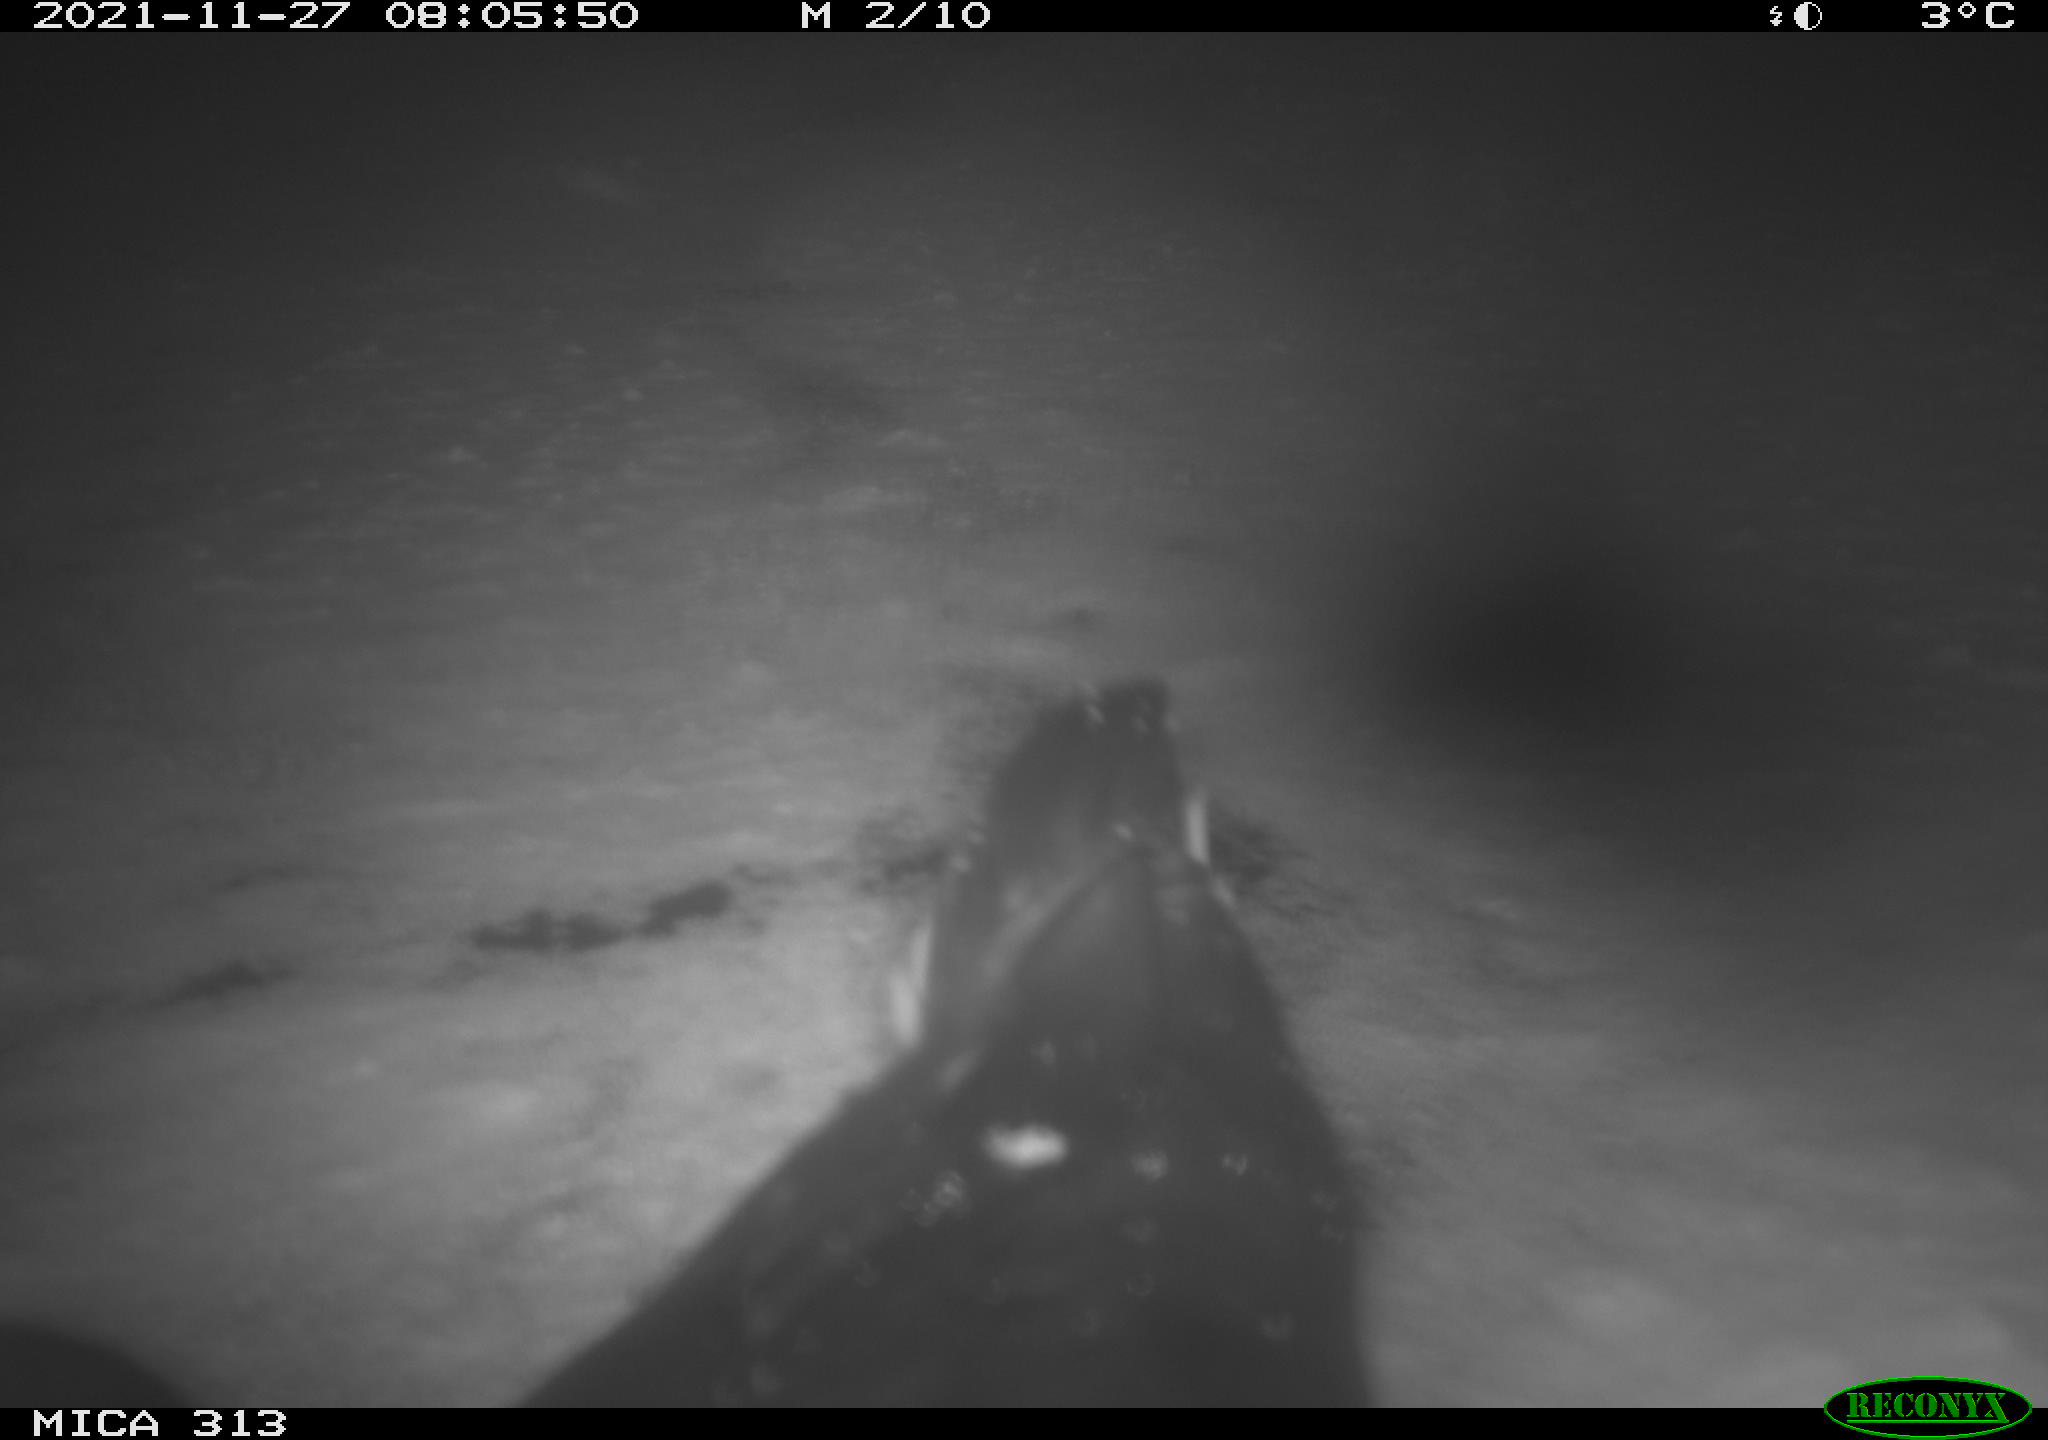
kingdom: Animalia
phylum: Chordata
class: Aves
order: Gruiformes
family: Rallidae
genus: Gallinula
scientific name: Gallinula chloropus
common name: Common moorhen
